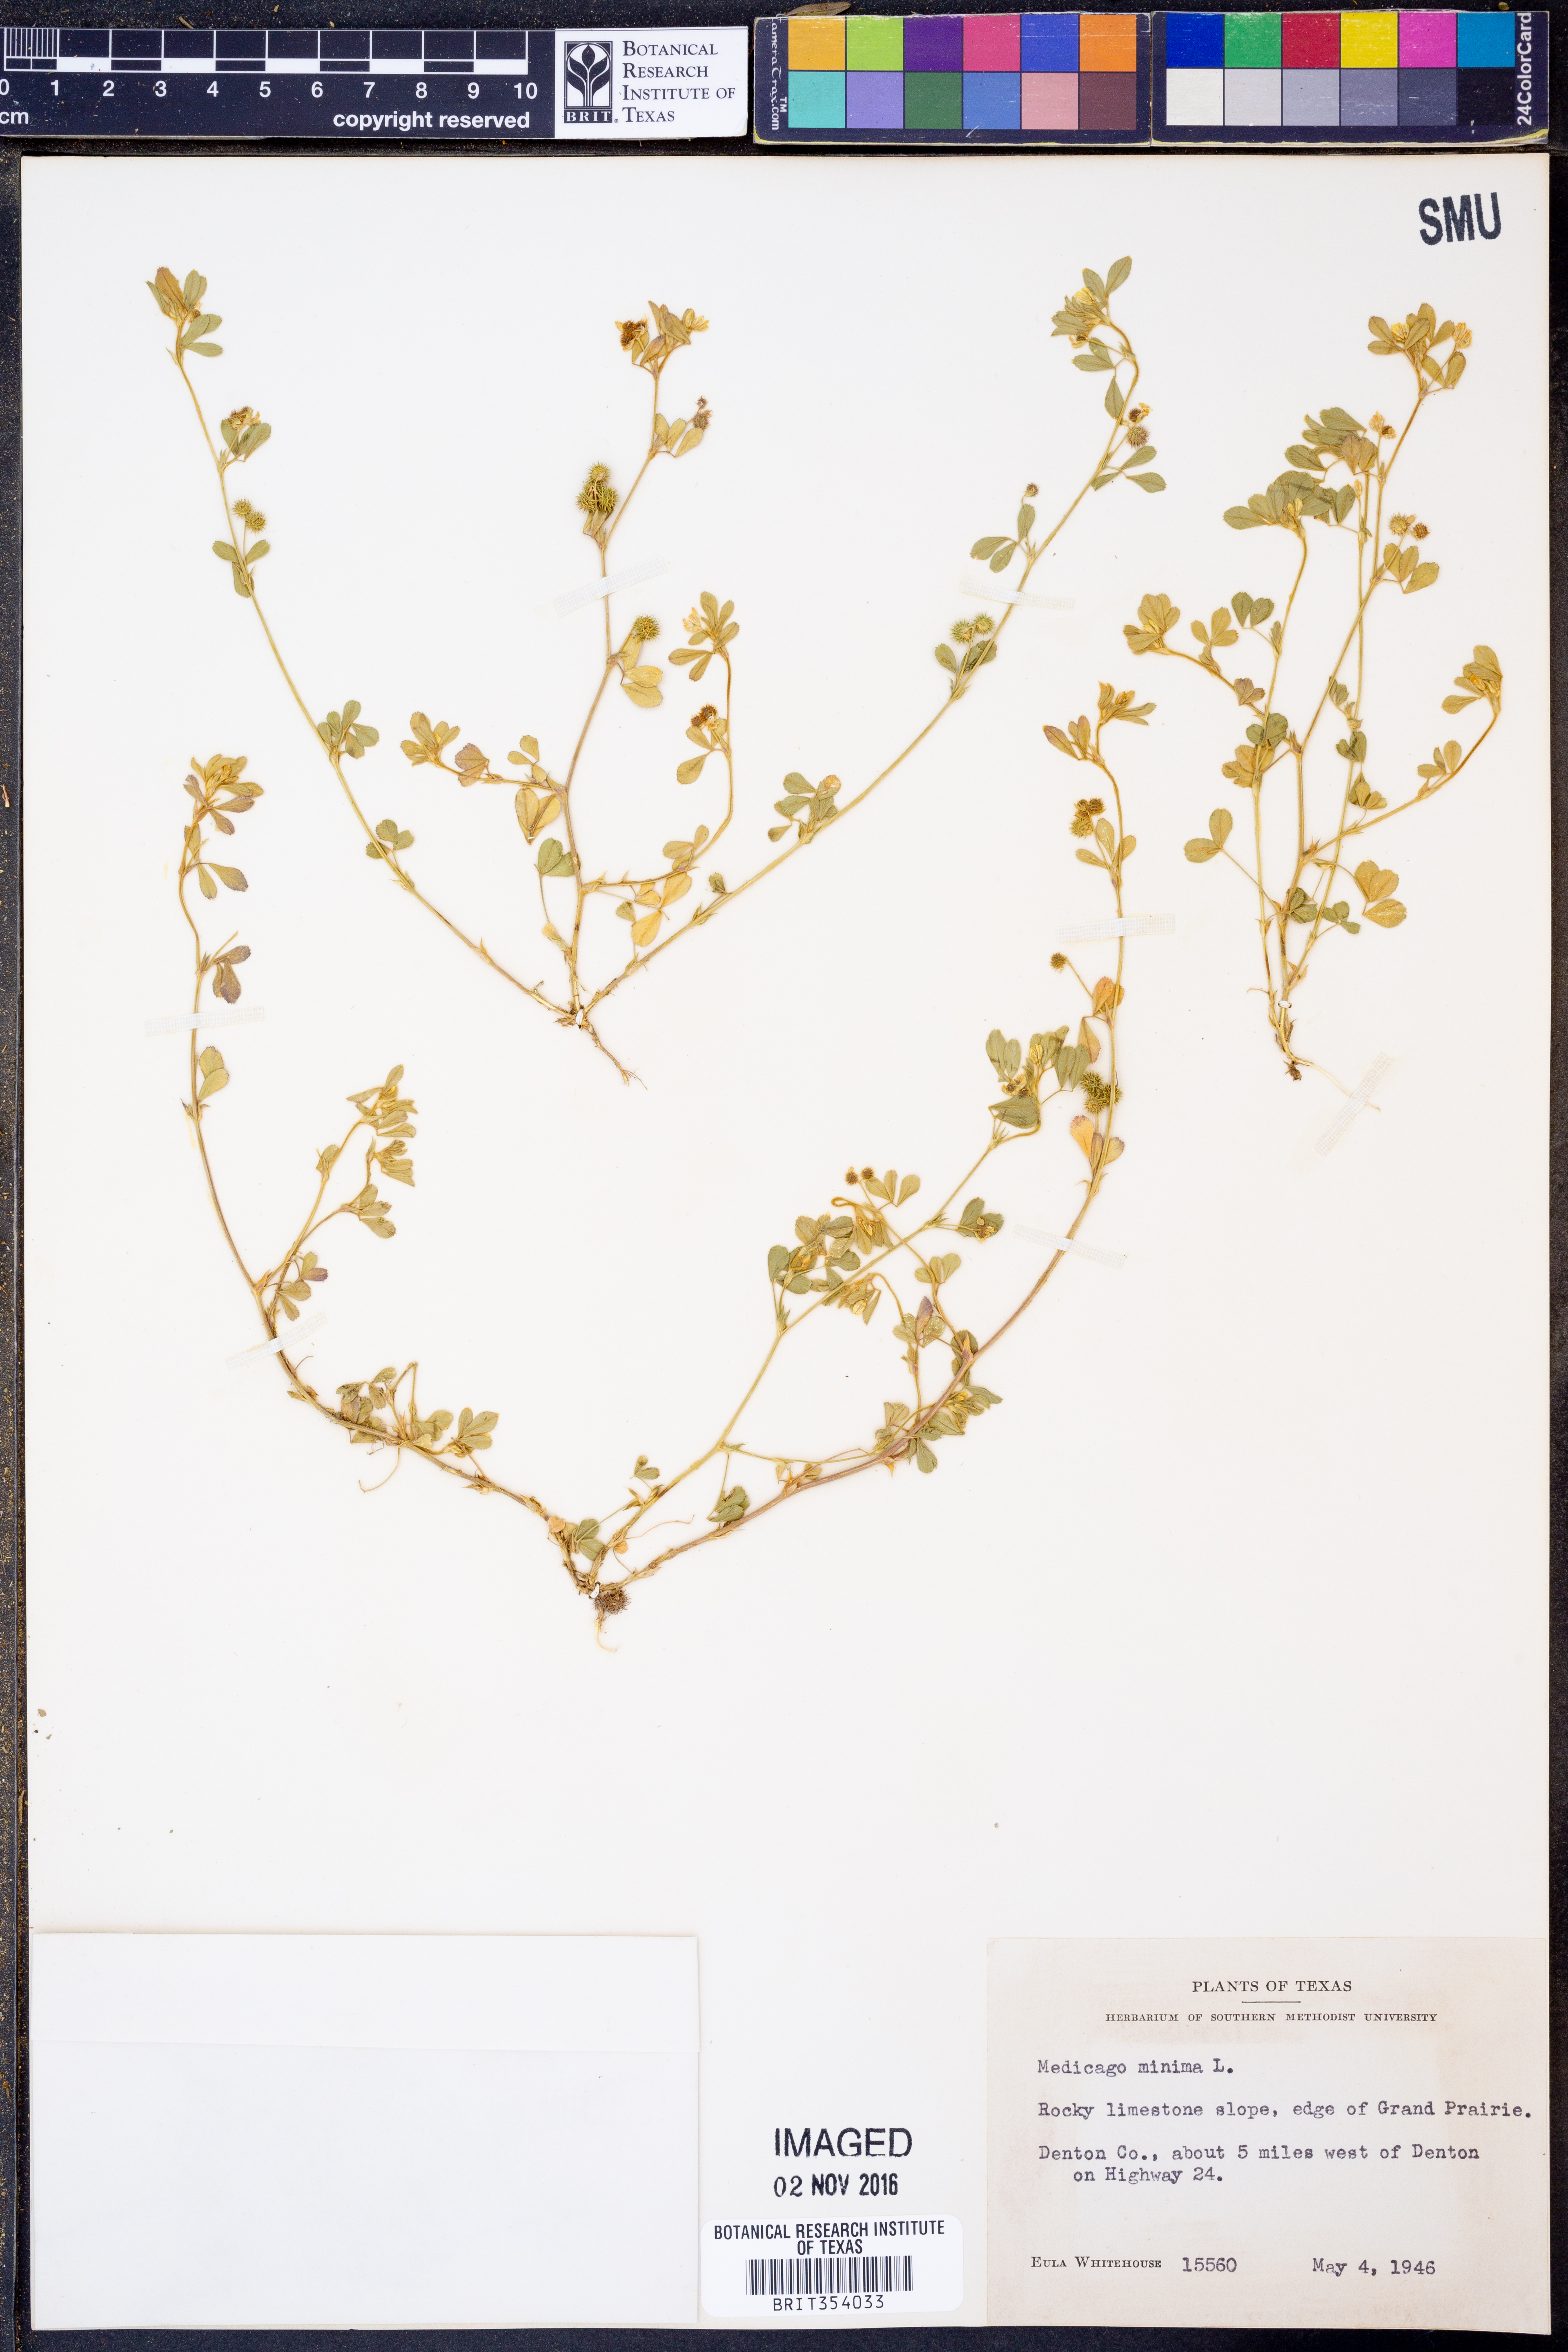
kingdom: Plantae
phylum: Tracheophyta
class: Magnoliopsida
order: Fabales
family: Fabaceae
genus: Medicago
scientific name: Medicago minima
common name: Little bur-clover
